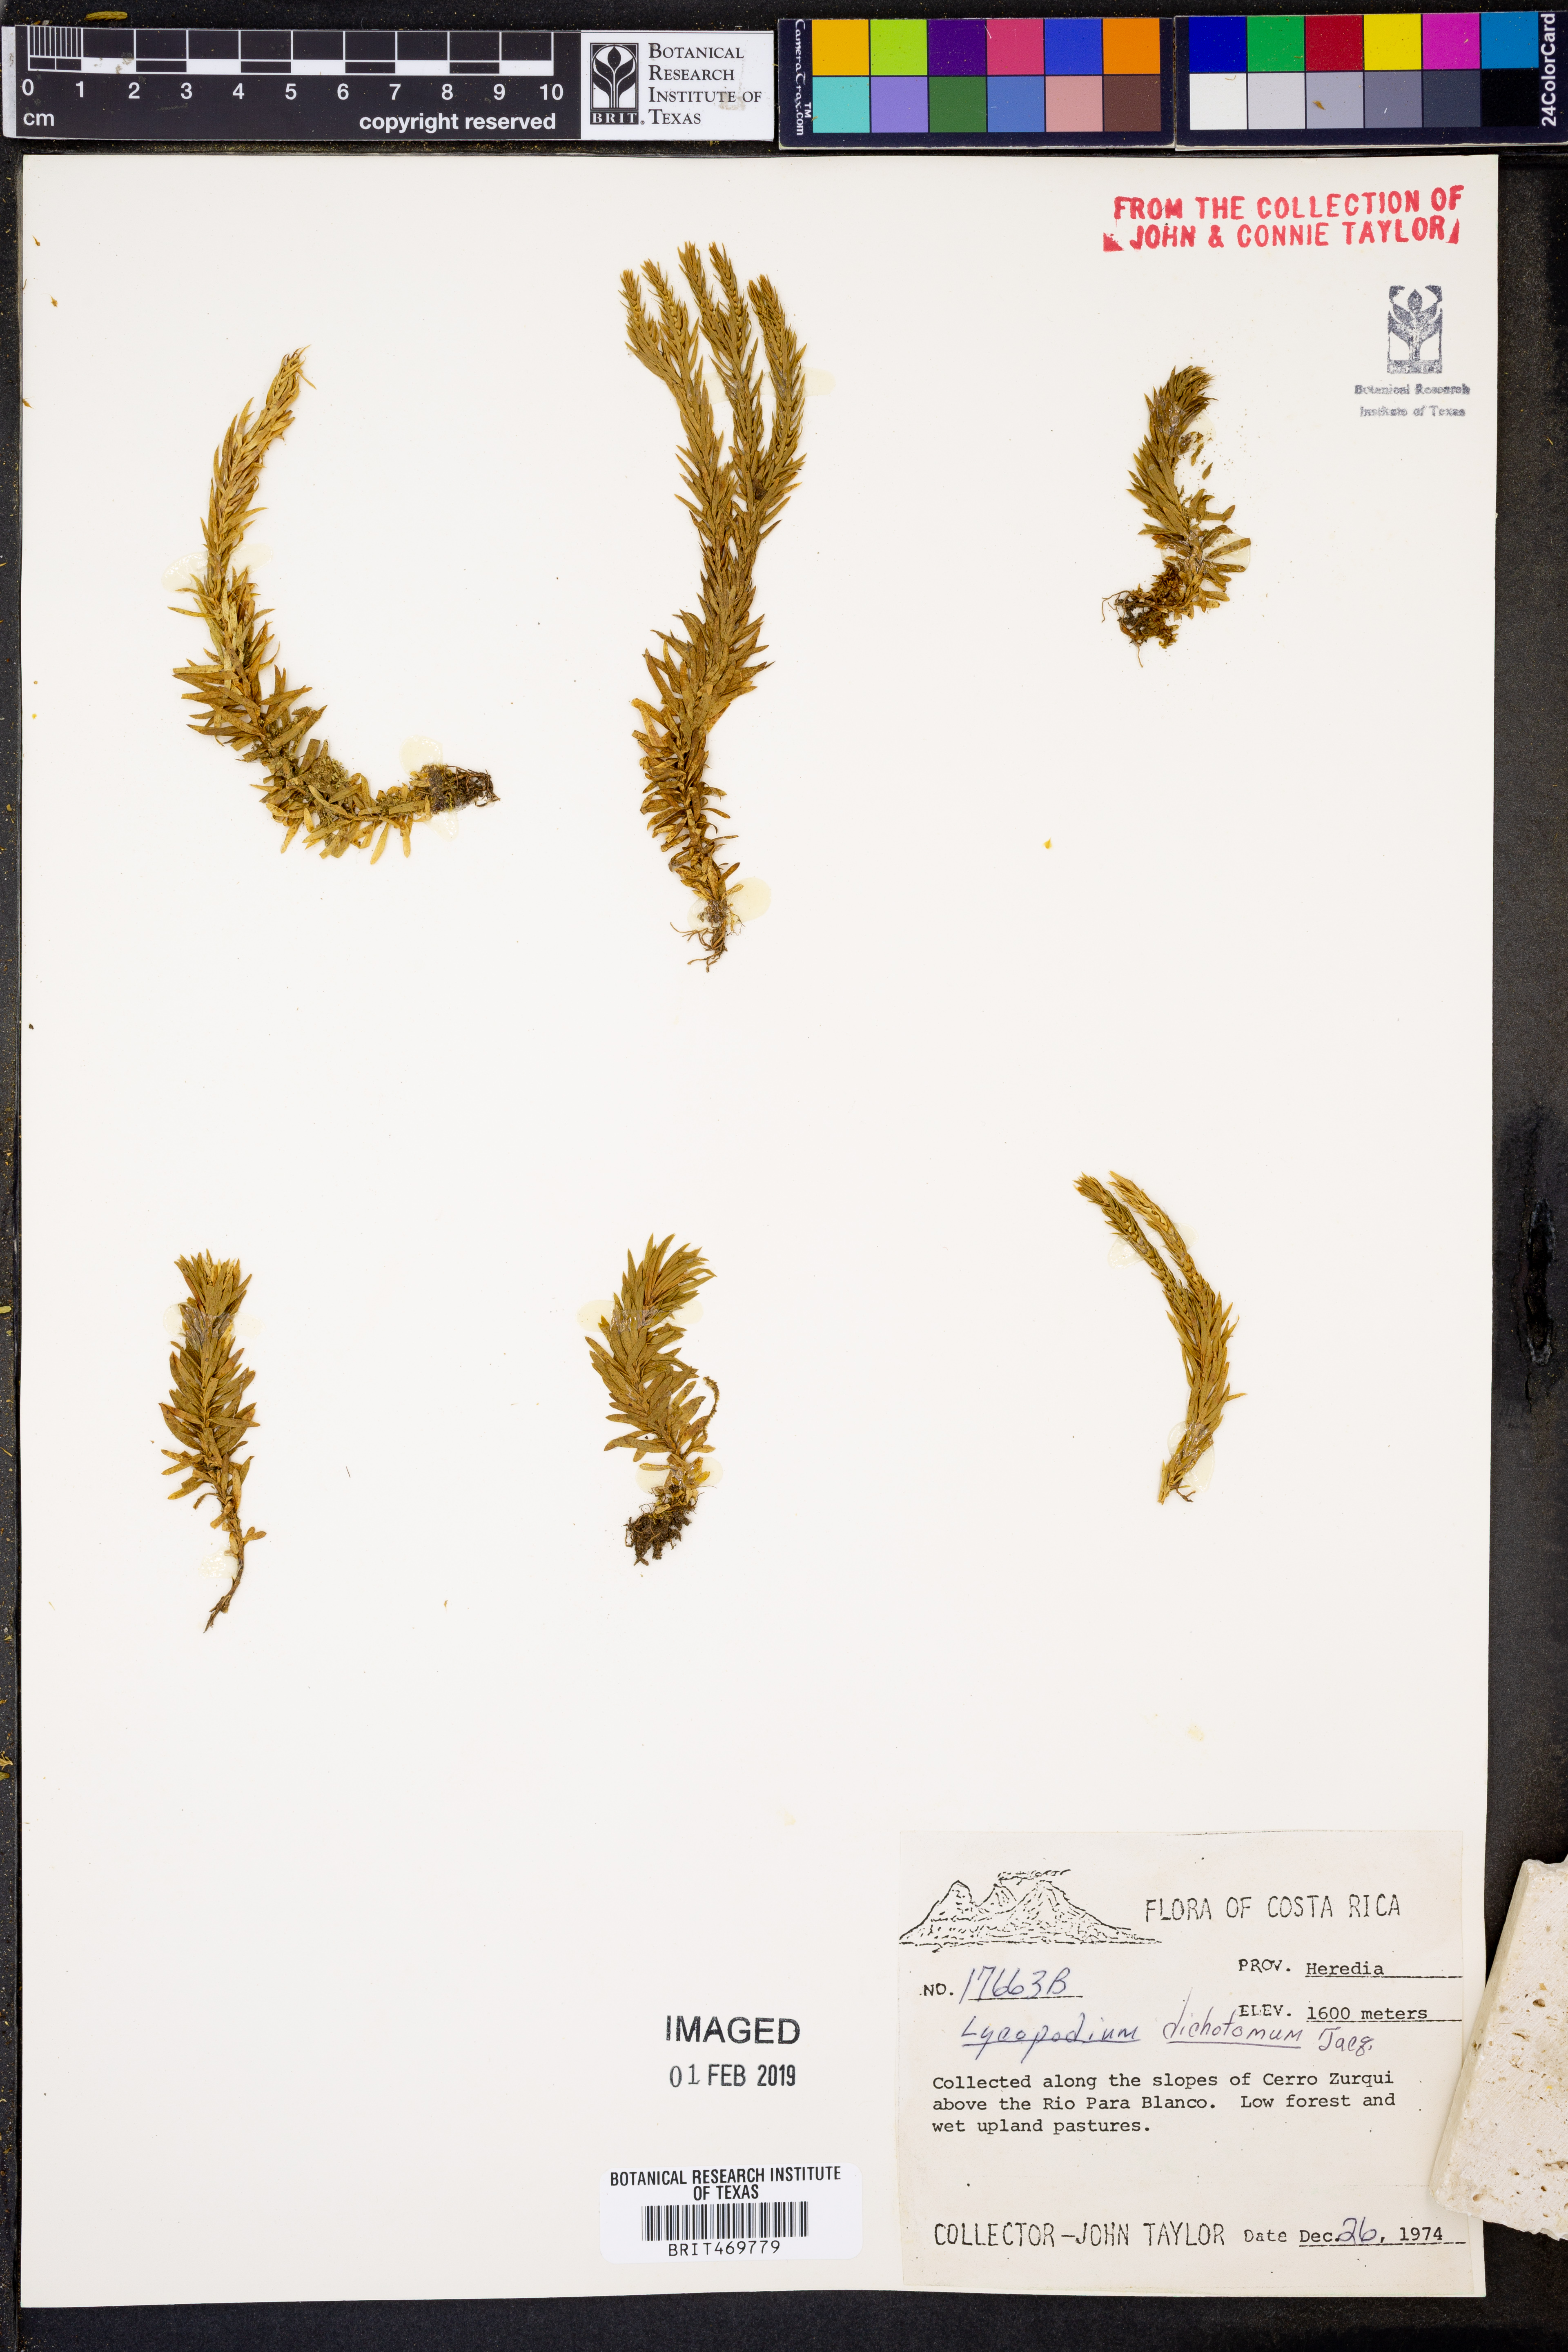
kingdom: Plantae
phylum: Tracheophyta
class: Lycopodiopsida
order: Lycopodiales
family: Lycopodiaceae
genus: Phlegmariurus
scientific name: Phlegmariurus dichotomus
